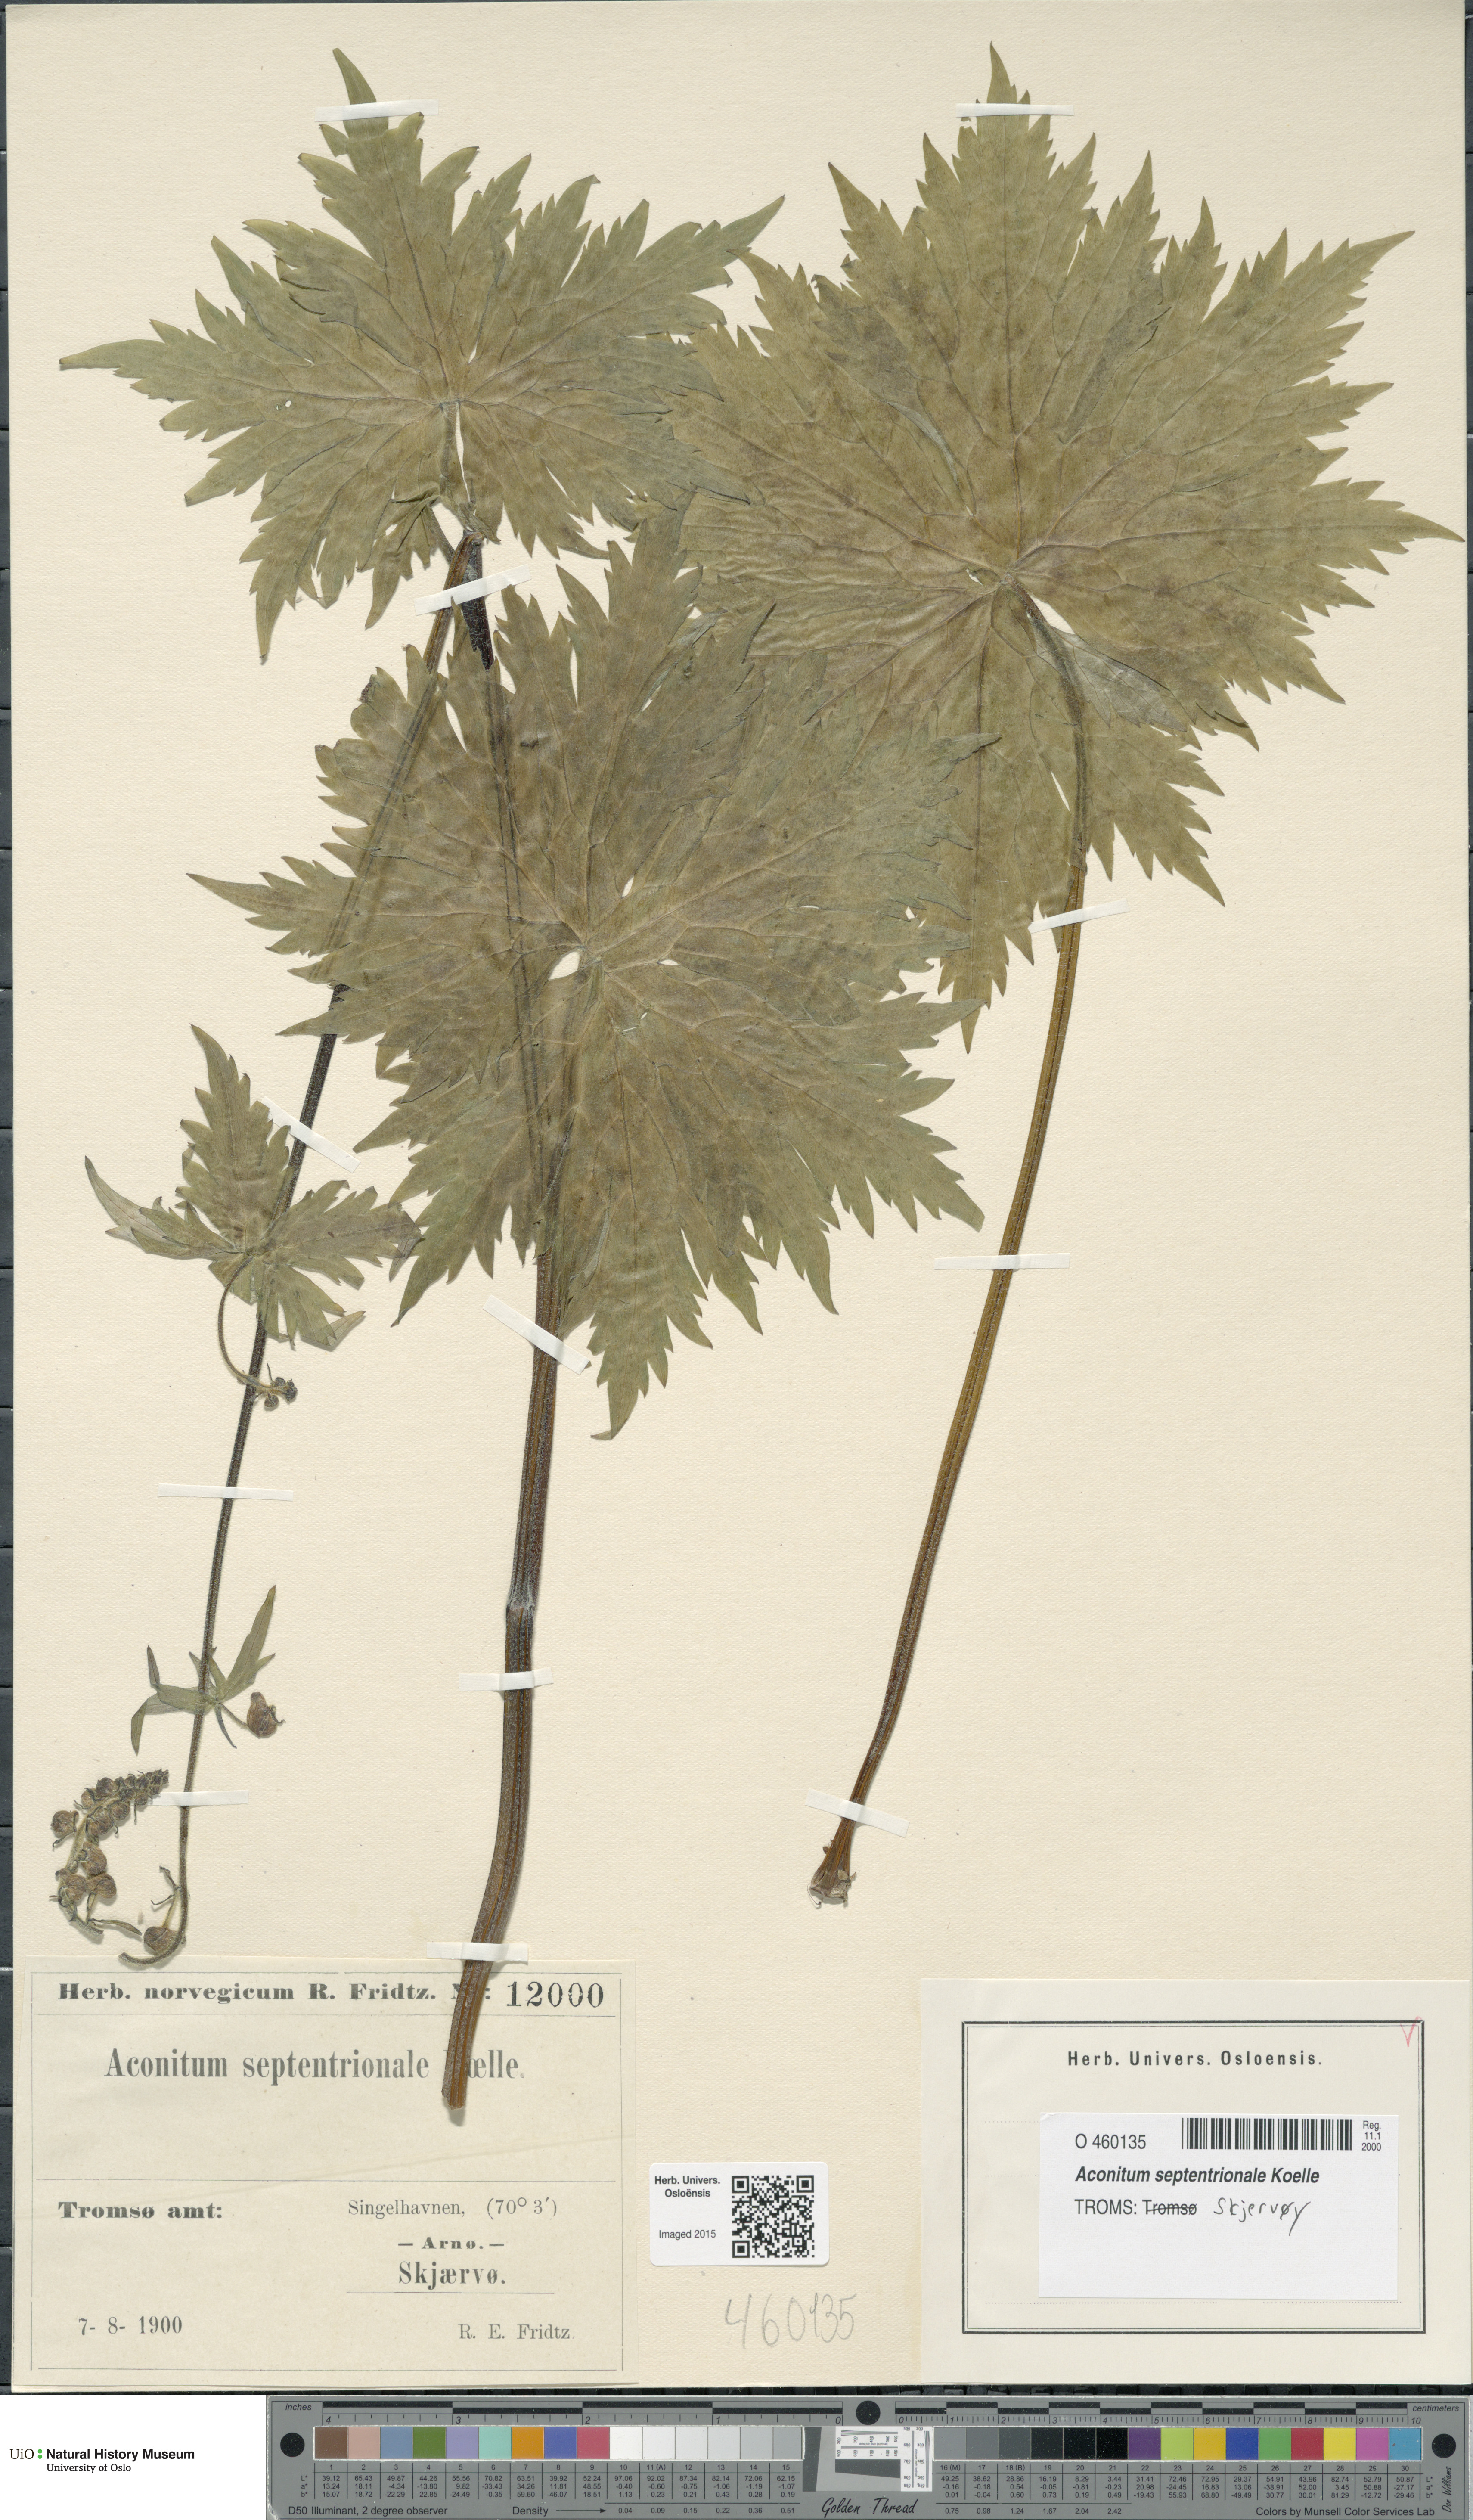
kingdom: Plantae
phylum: Tracheophyta
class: Magnoliopsida
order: Ranunculales
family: Ranunculaceae
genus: Aconitum
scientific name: Aconitum septentrionale
